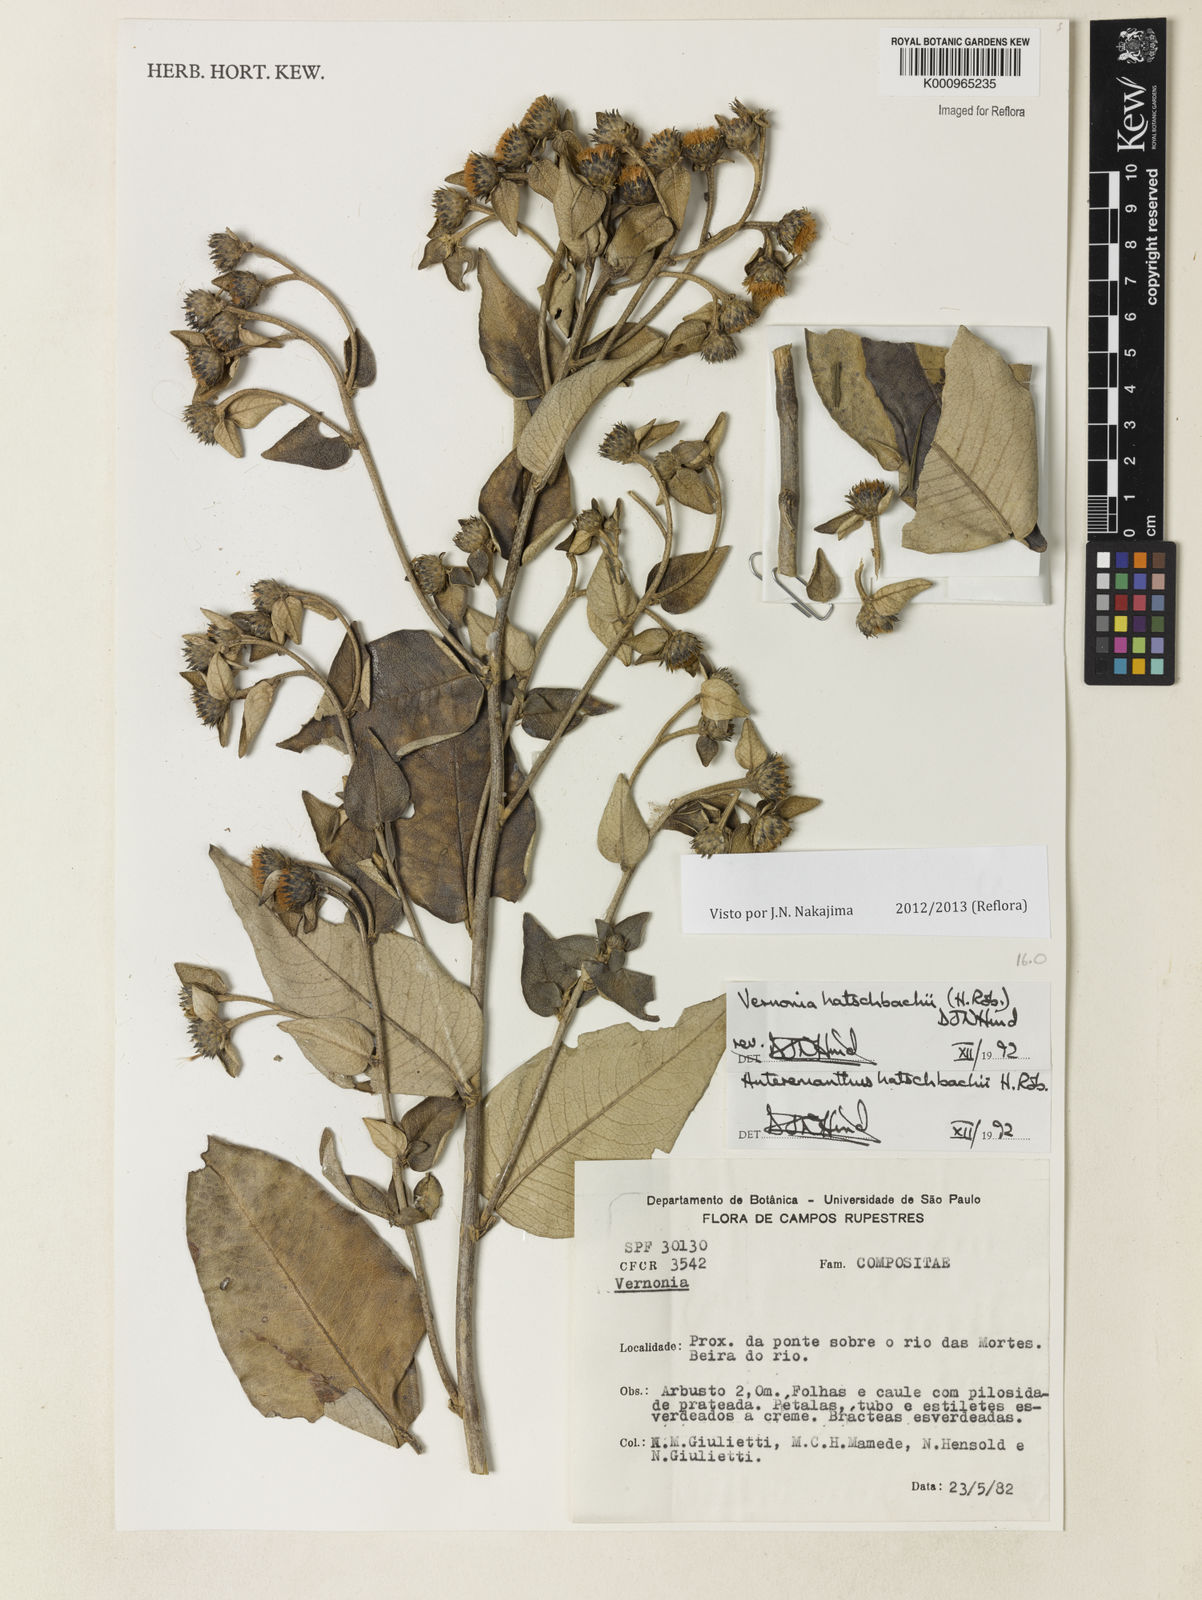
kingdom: Plantae
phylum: Tracheophyta
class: Magnoliopsida
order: Asterales
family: Asteraceae
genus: Anteremanthus
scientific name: Anteremanthus hatschbachii
